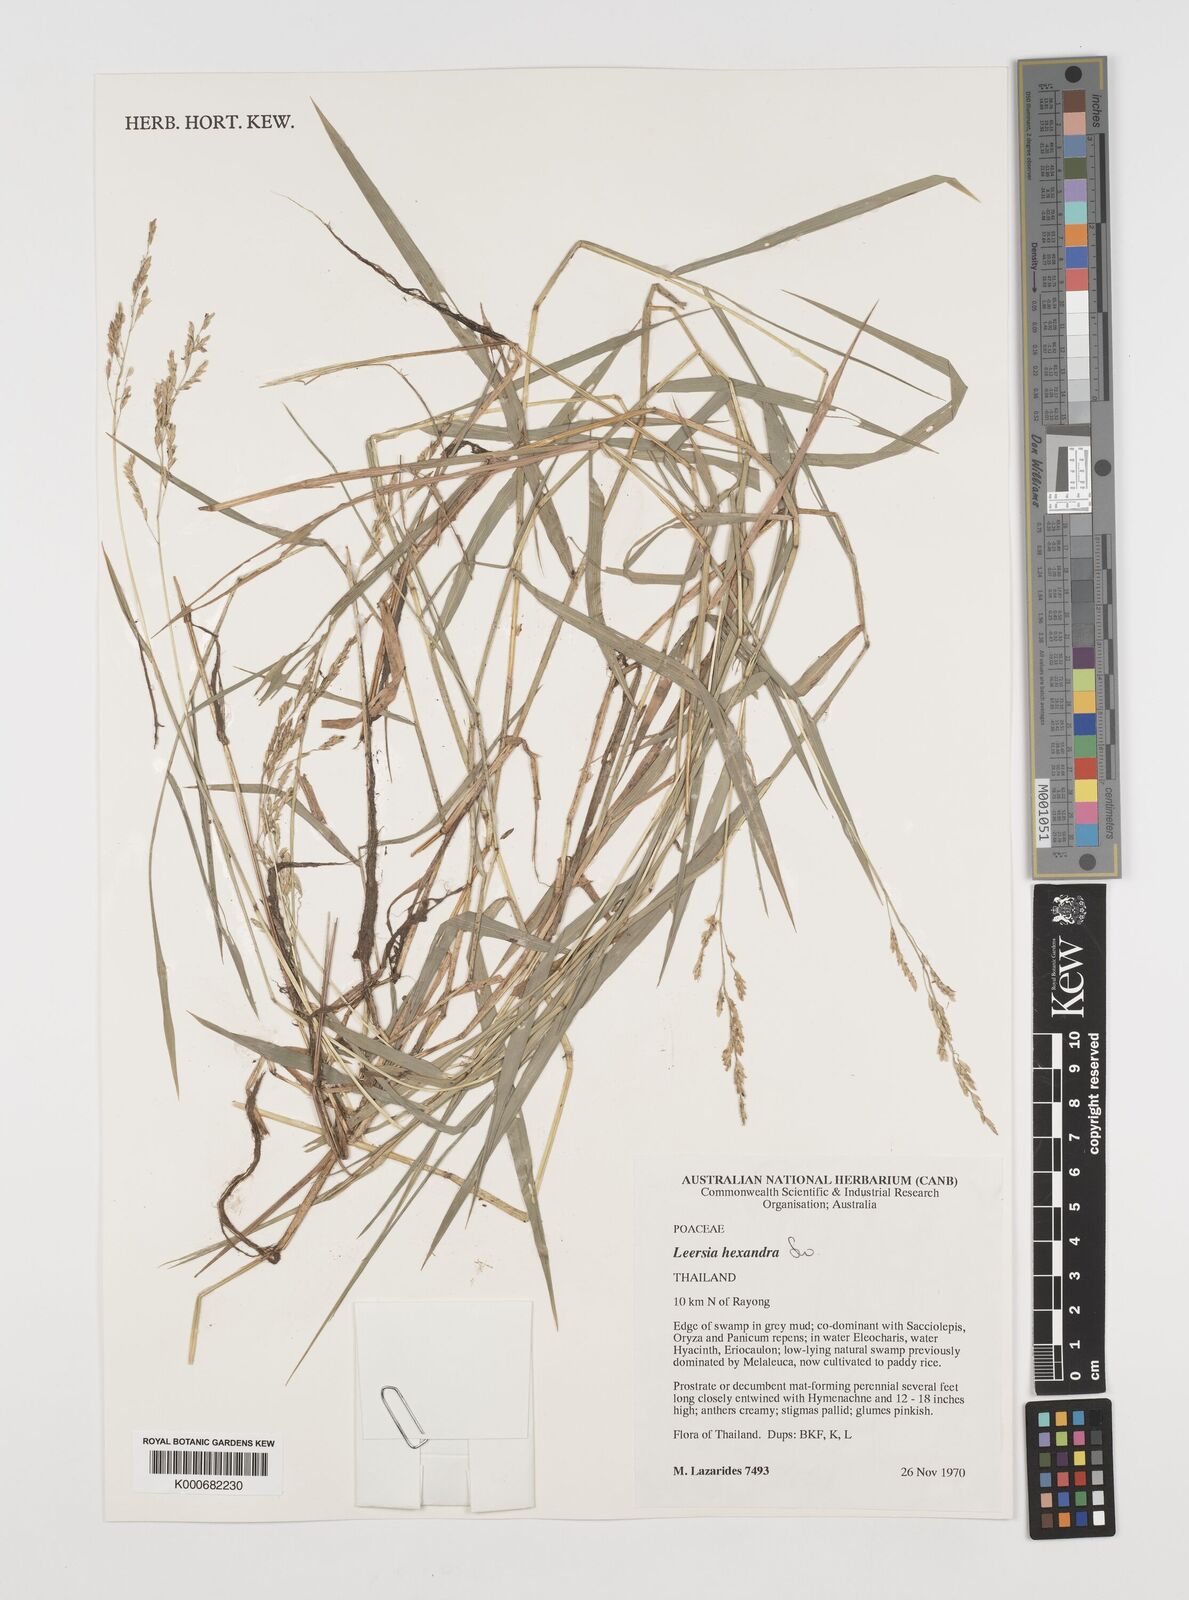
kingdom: Plantae
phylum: Tracheophyta
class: Liliopsida
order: Poales
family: Poaceae
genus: Leersia
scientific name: Leersia hexandra
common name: Southern cut grass
